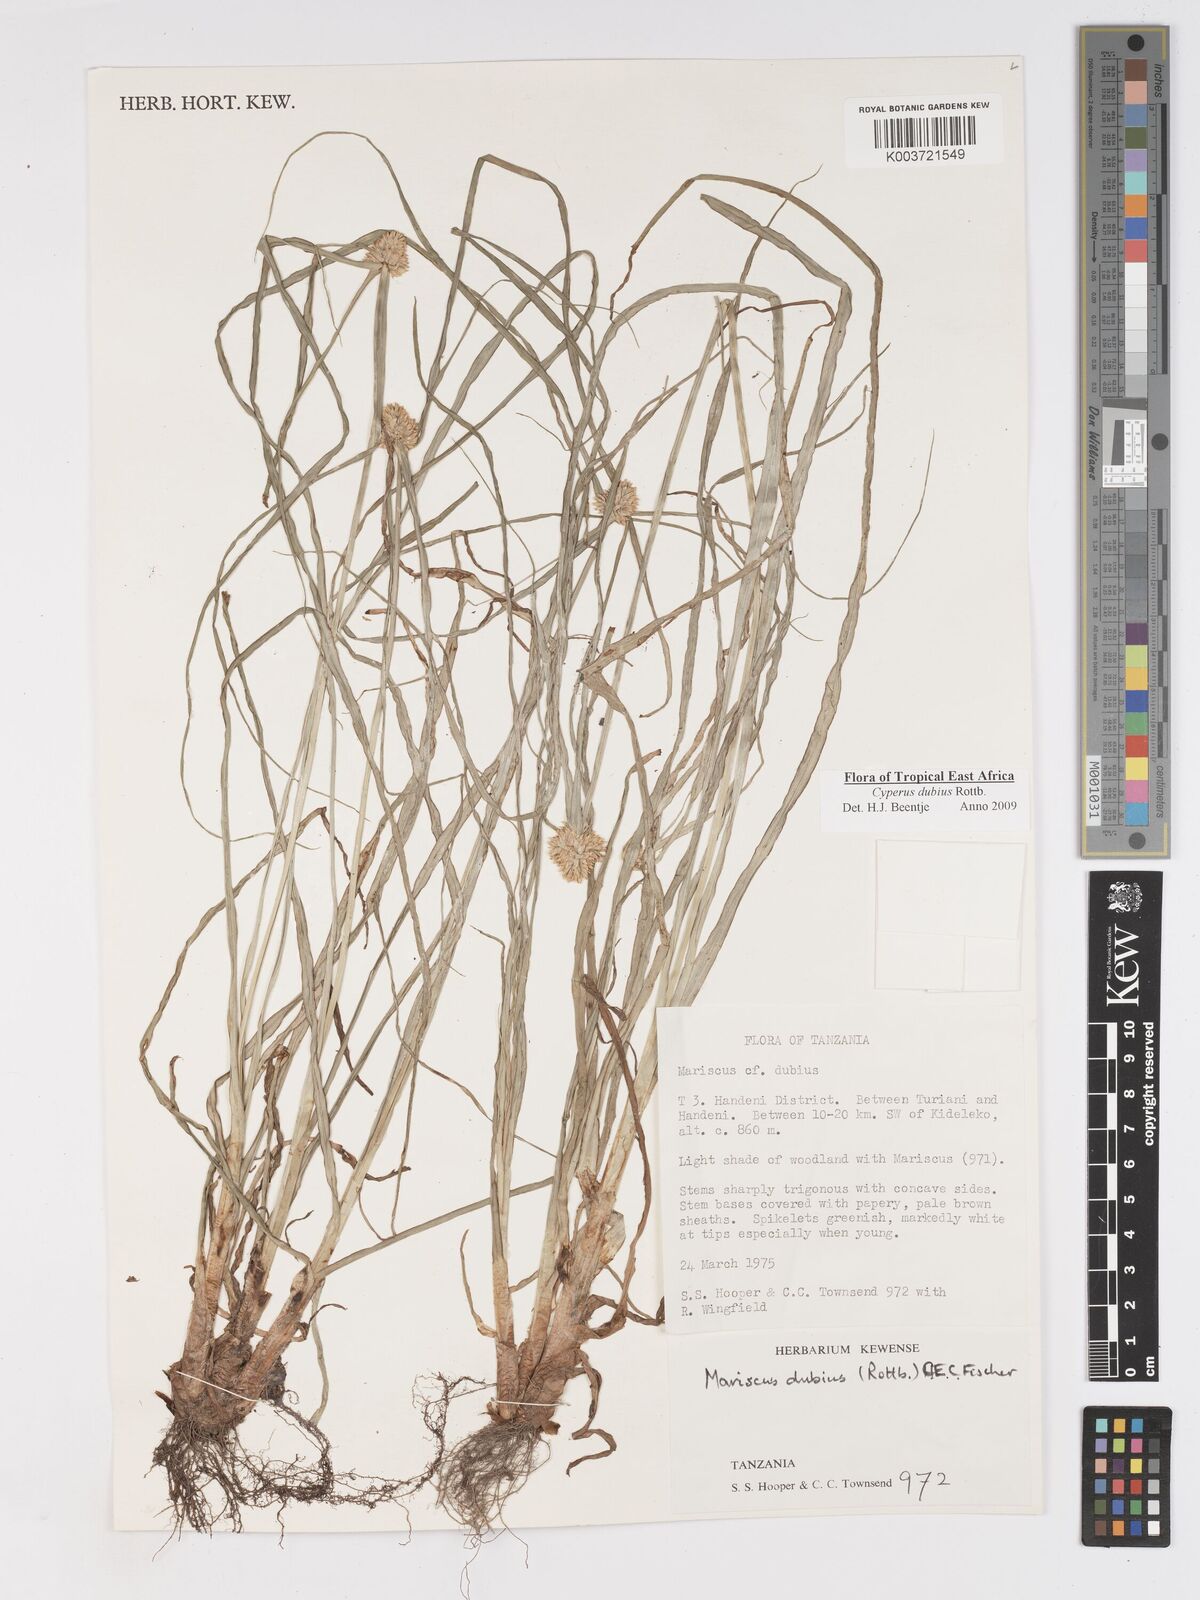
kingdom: Plantae
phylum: Tracheophyta
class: Liliopsida
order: Poales
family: Cyperaceae
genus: Cyperus
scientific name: Cyperus dubius
